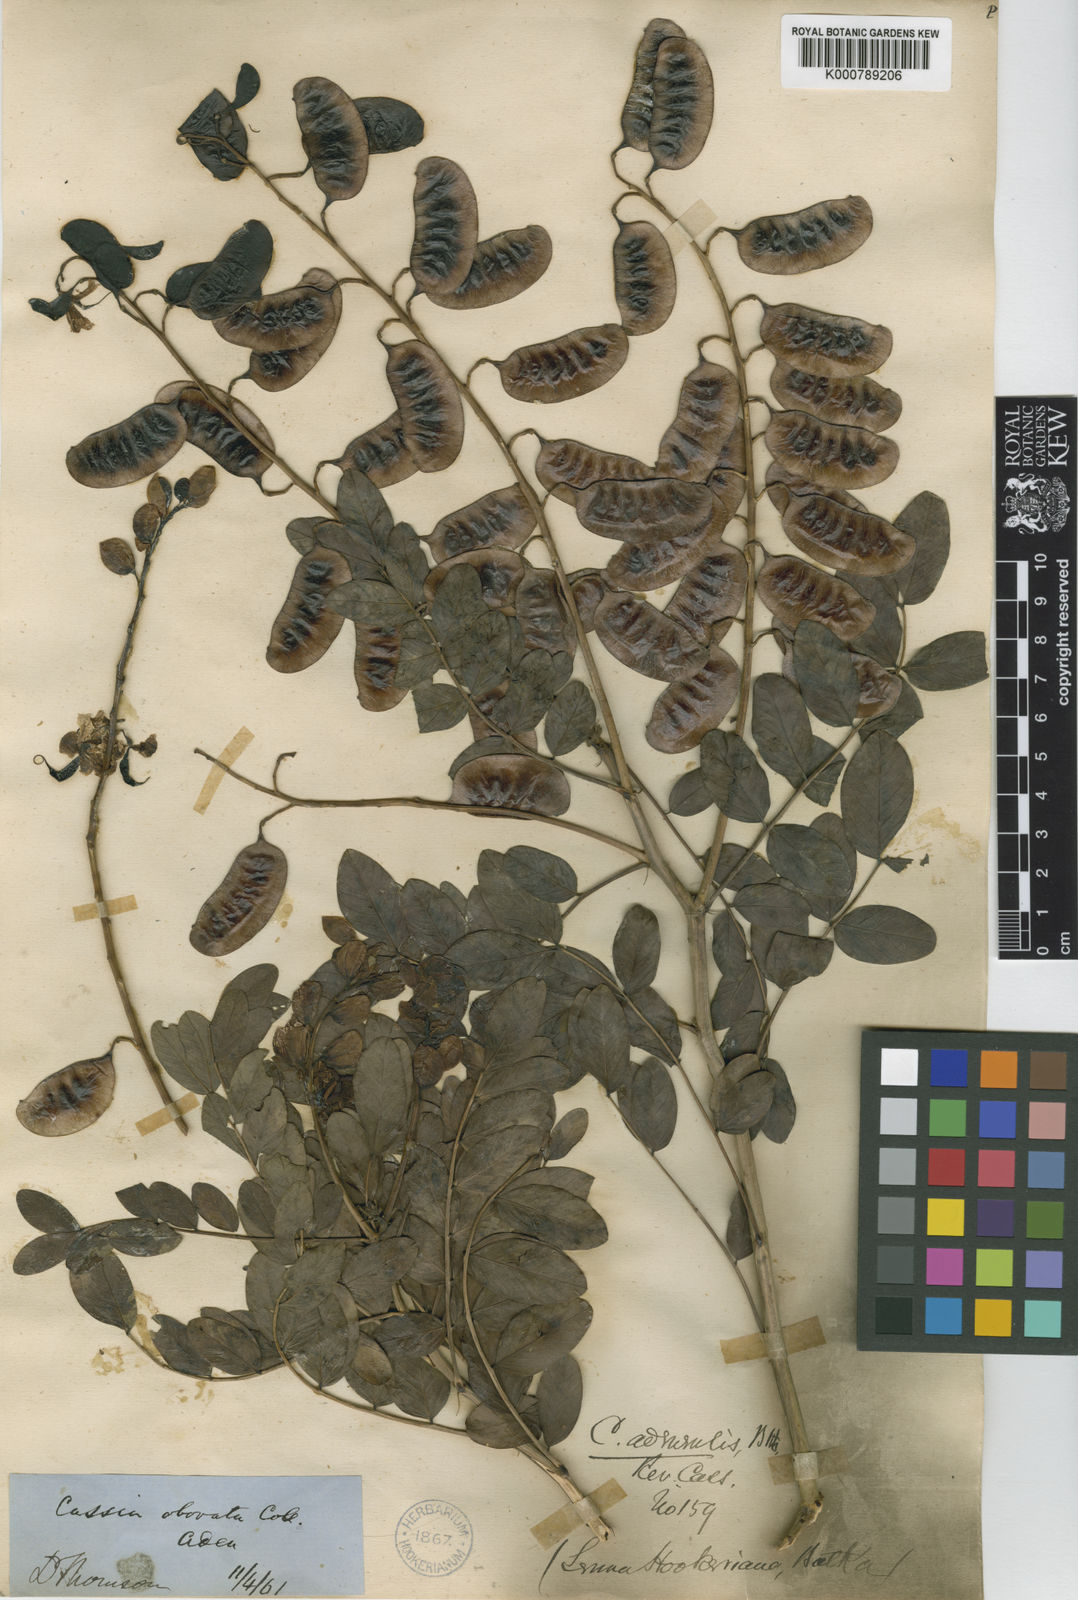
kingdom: Plantae
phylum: Tracheophyta
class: Magnoliopsida
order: Fabales
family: Fabaceae
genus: Senna
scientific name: Senna hookeriana
